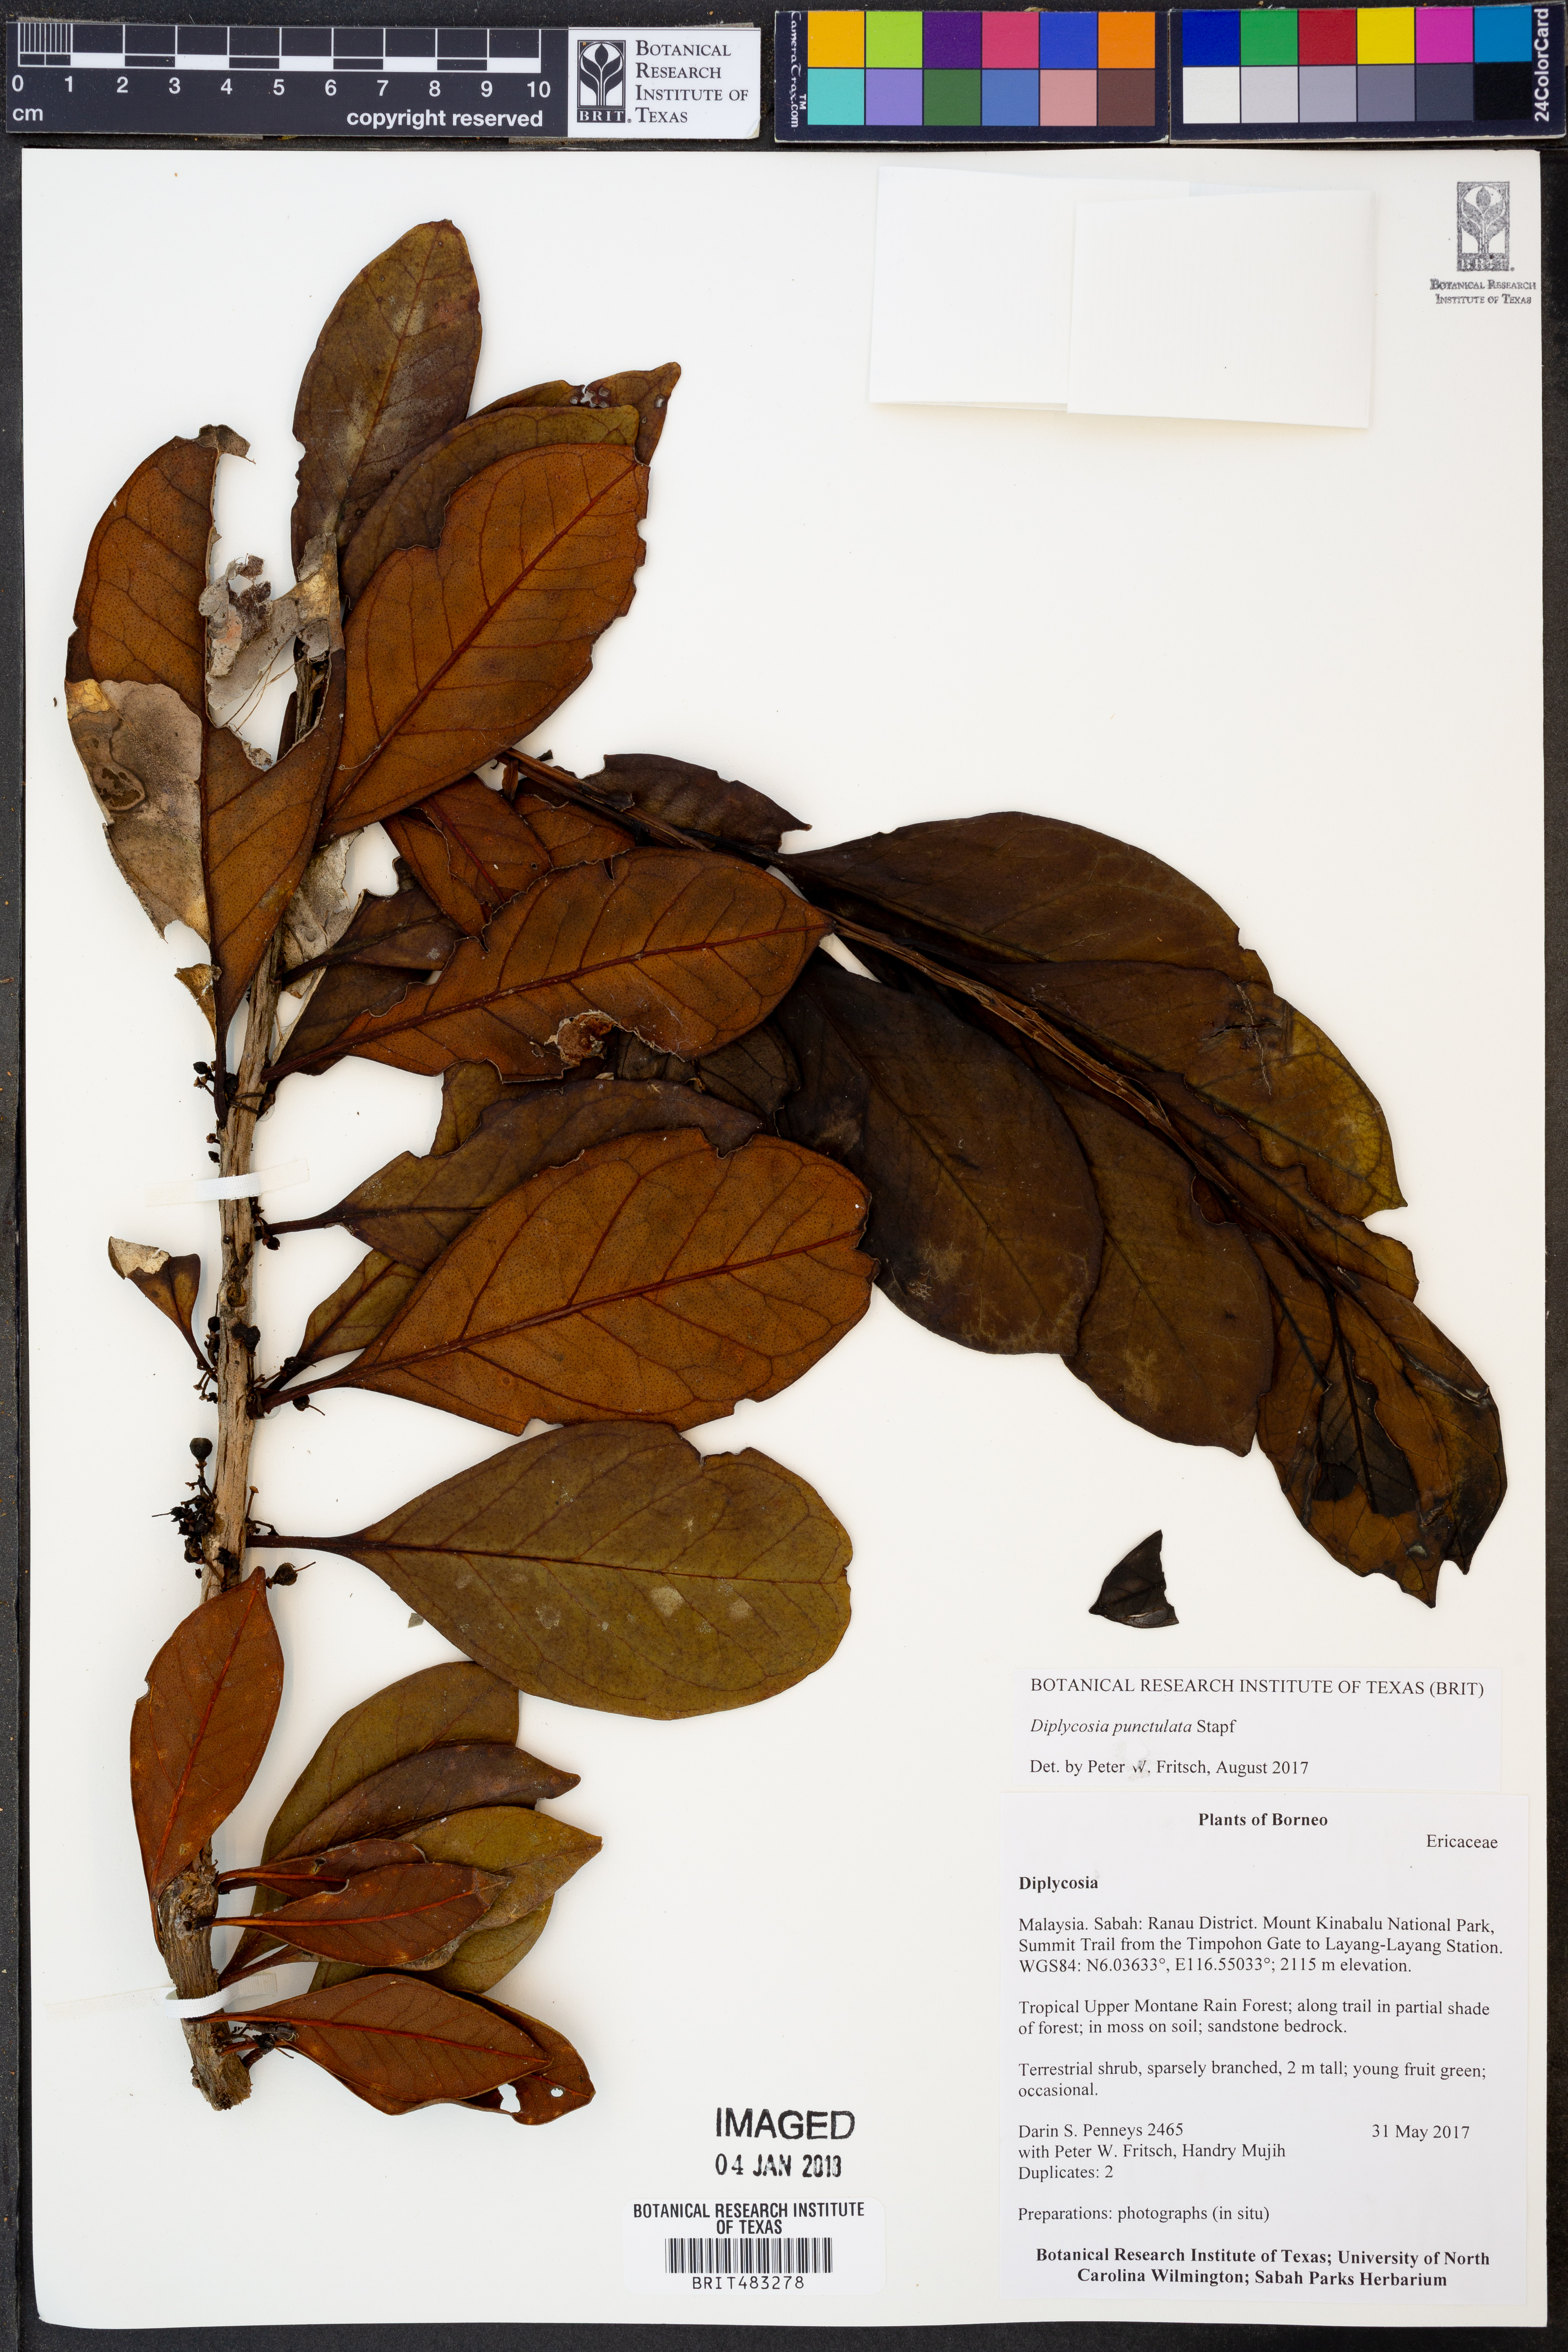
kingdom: Plantae
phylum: Tracheophyta
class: Magnoliopsida
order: Ericales
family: Ericaceae
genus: Gaultheria
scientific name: Gaultheria punctulata
